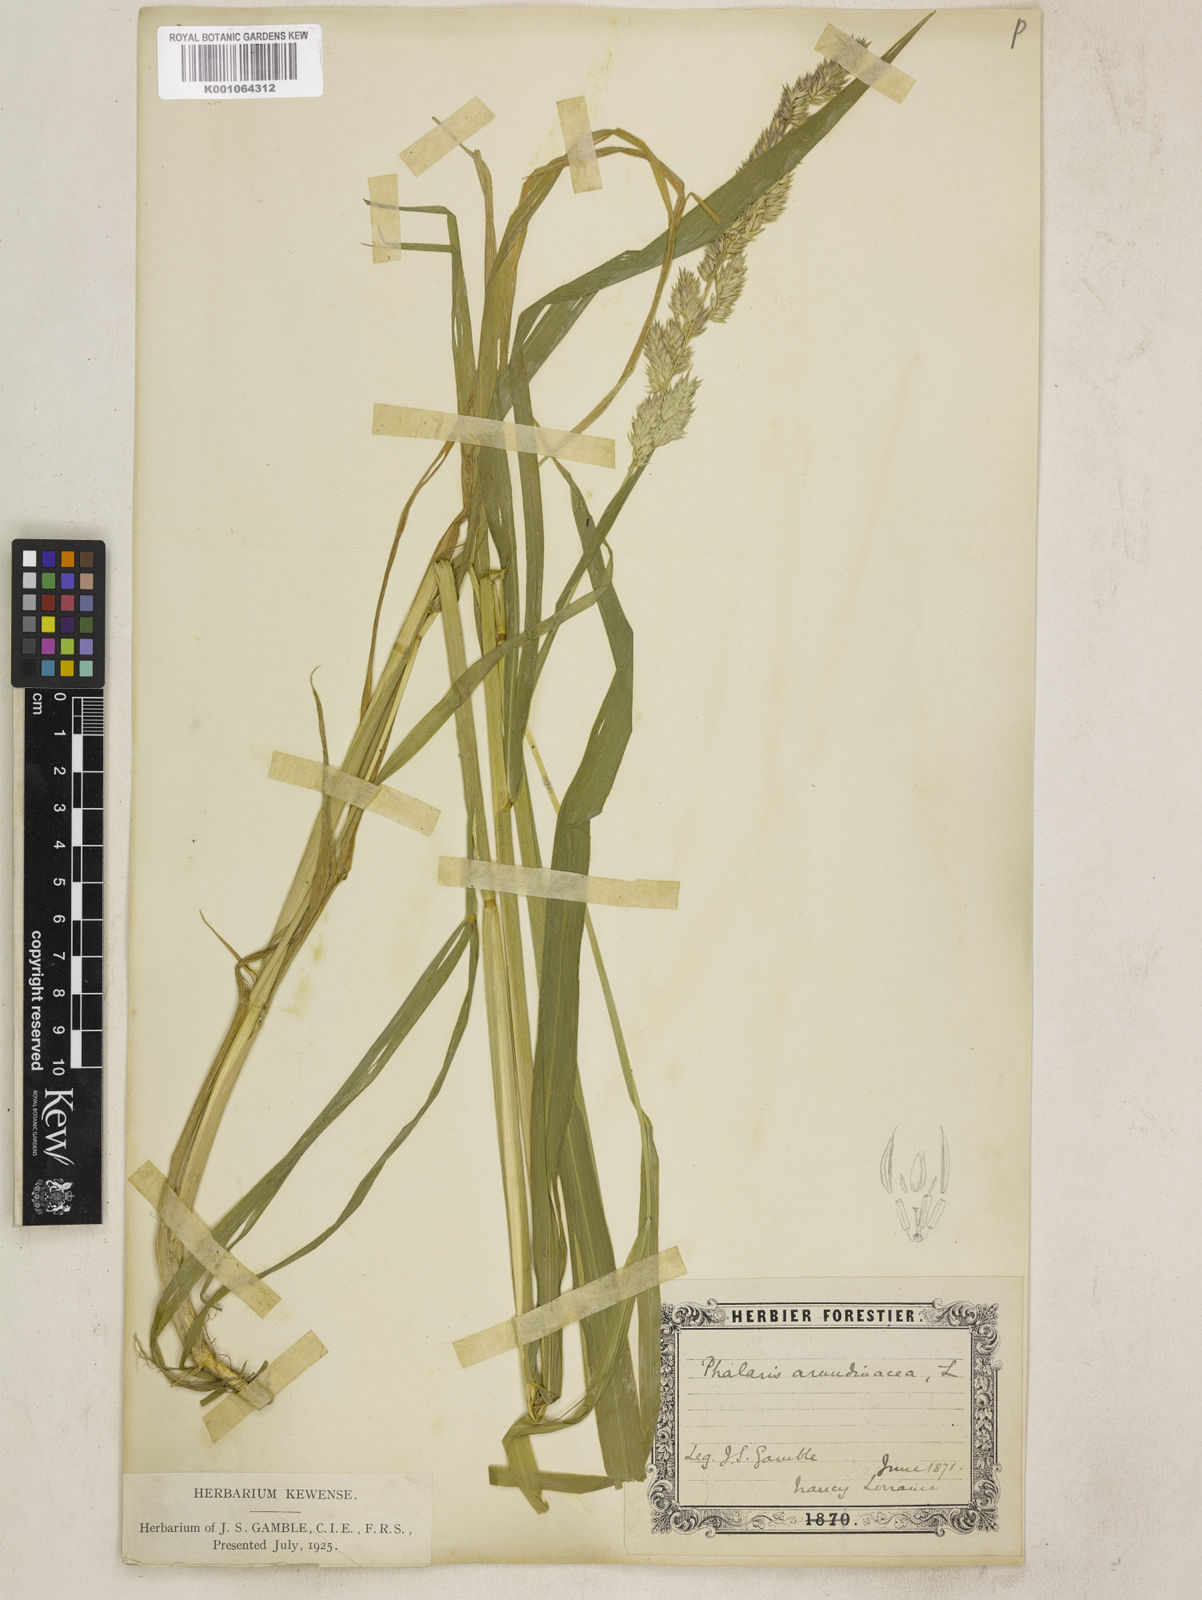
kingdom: Plantae
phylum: Tracheophyta
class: Liliopsida
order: Poales
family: Poaceae
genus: Phalaris
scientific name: Phalaris arundinacea
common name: Reed canary-grass
